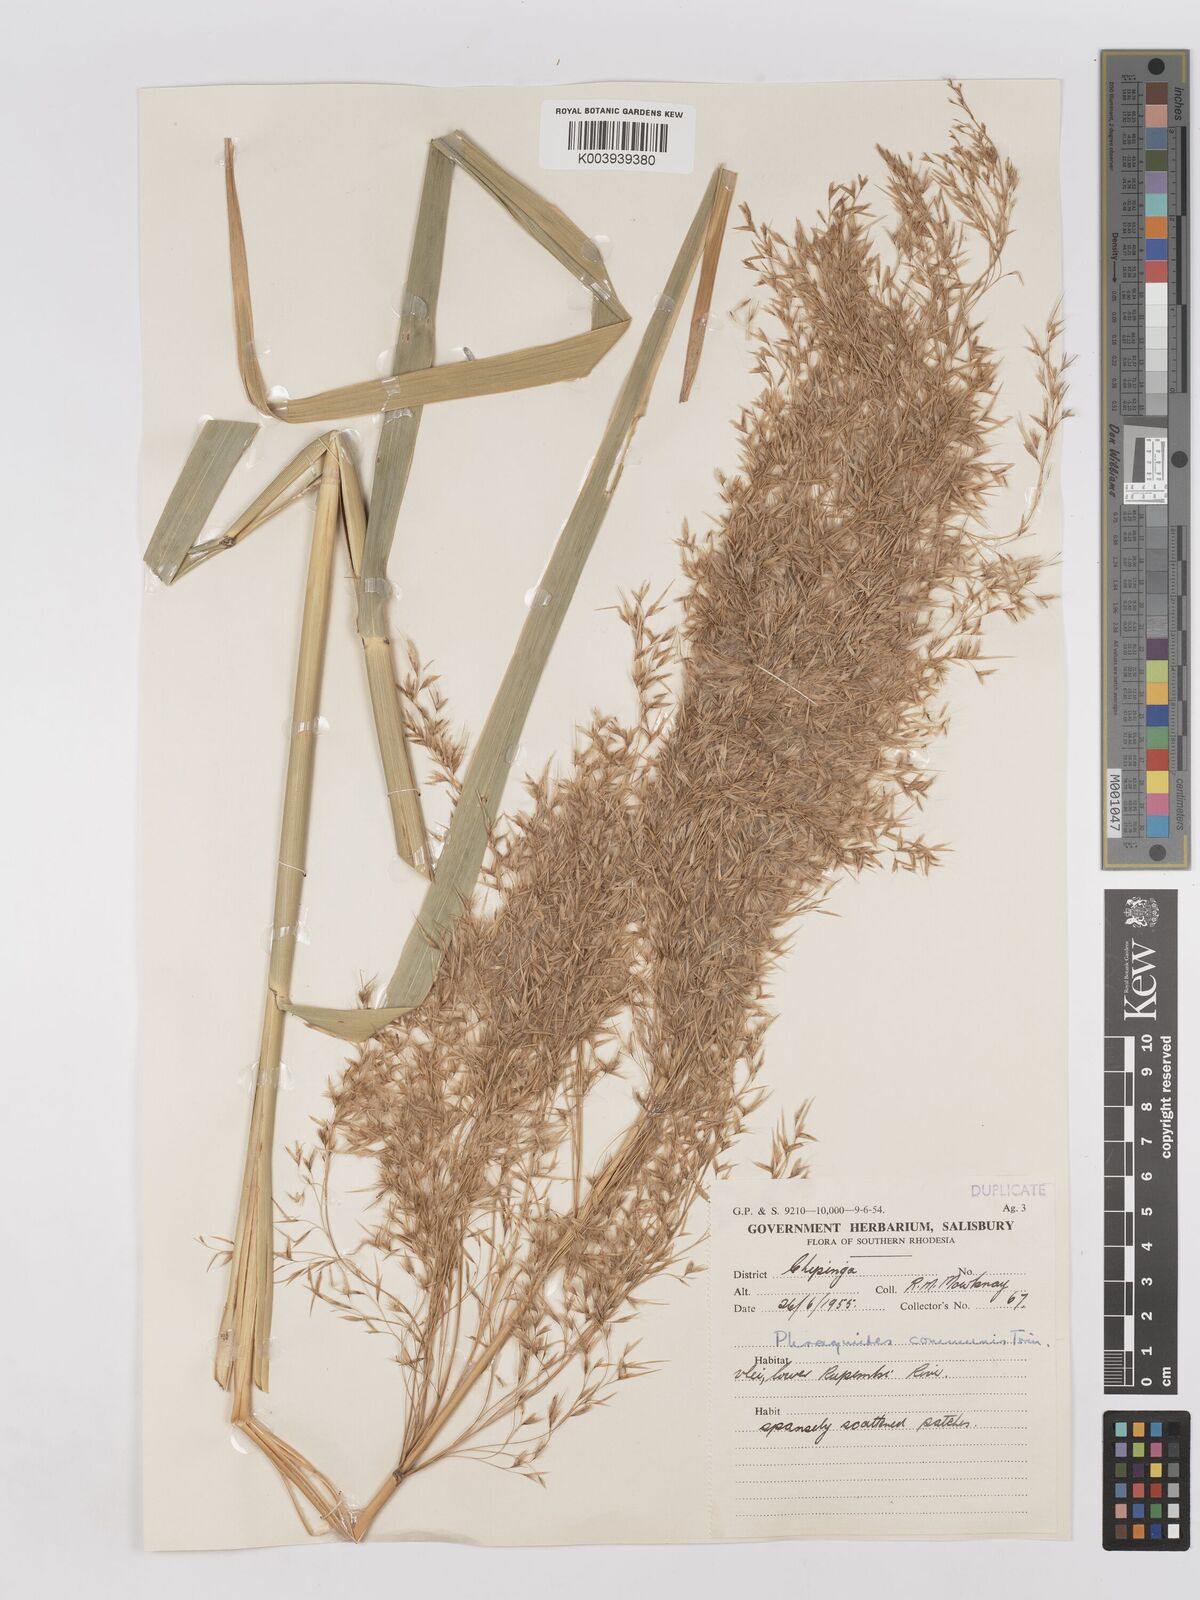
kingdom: Plantae
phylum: Tracheophyta
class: Liliopsida
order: Poales
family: Poaceae
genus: Phragmites
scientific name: Phragmites australis
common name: Common reed
